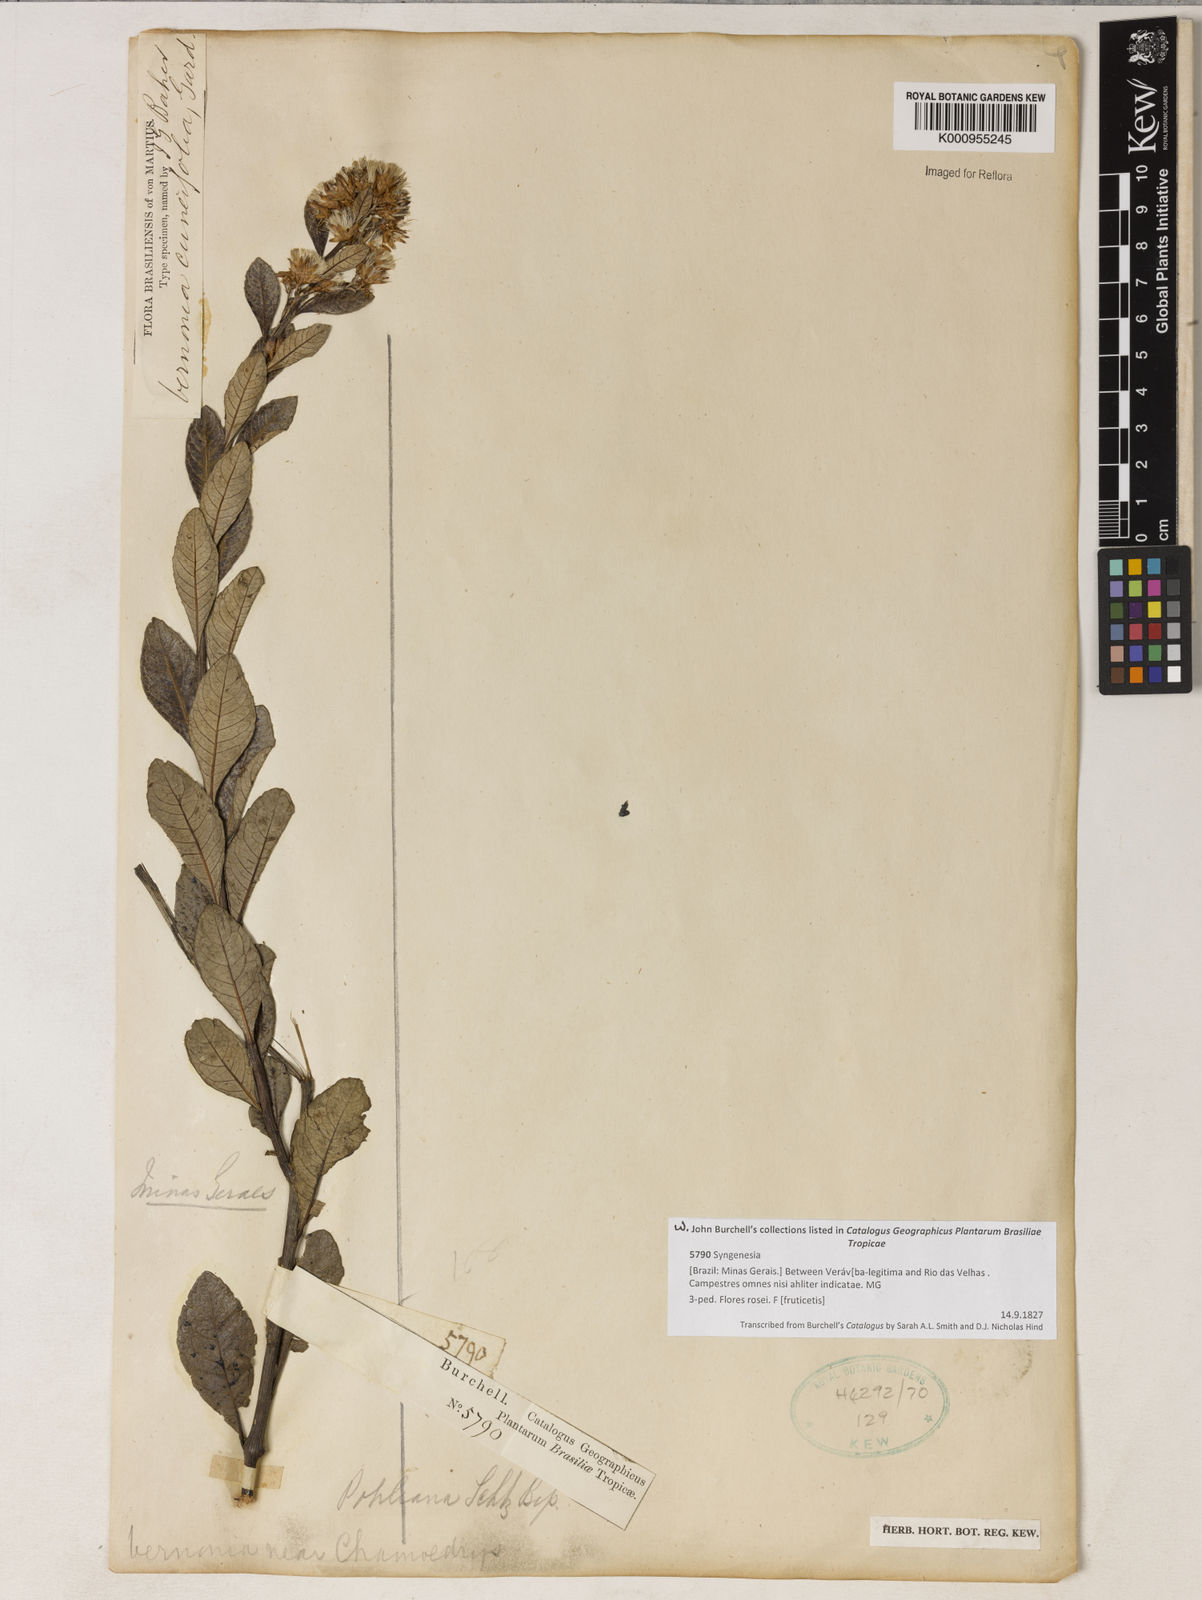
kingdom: Plantae
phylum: Tracheophyta
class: Magnoliopsida
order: Asterales
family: Asteraceae
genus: Vernonanthura
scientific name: Vernonanthura cuneifolia
